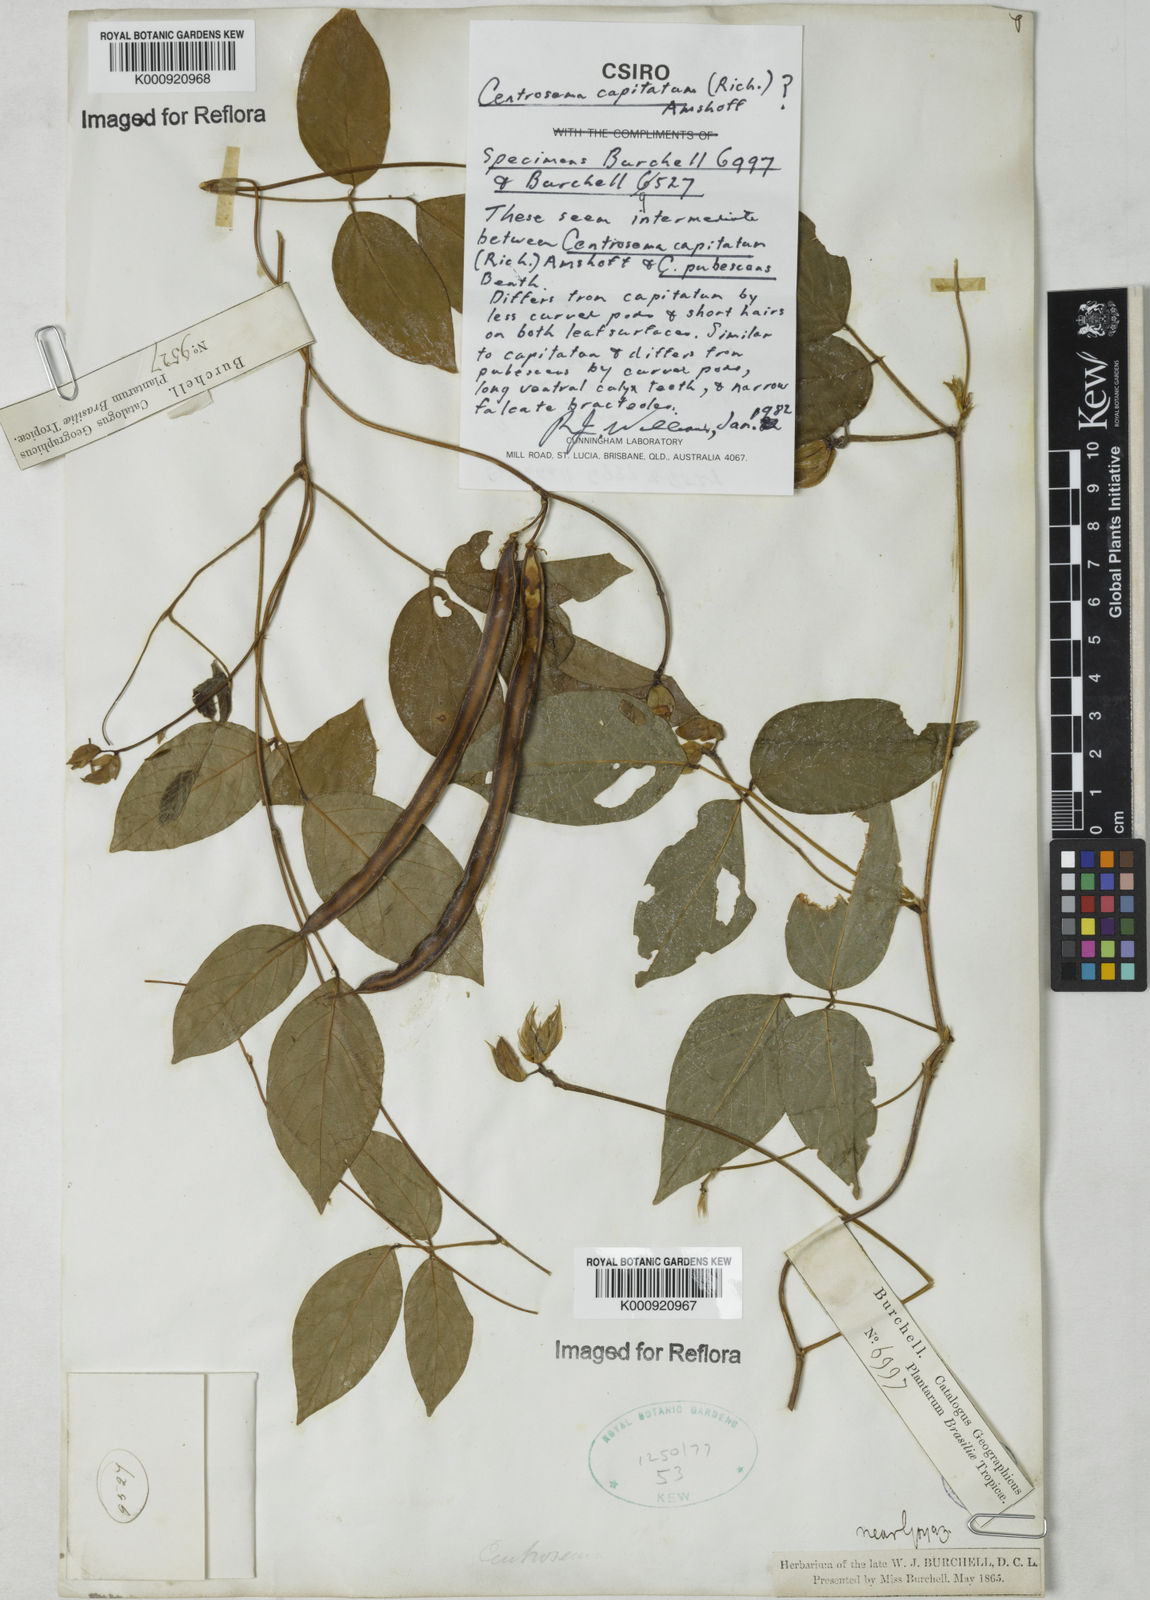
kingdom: Plantae
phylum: Tracheophyta
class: Magnoliopsida
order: Fabales
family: Fabaceae
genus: Centrosema
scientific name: Centrosema
